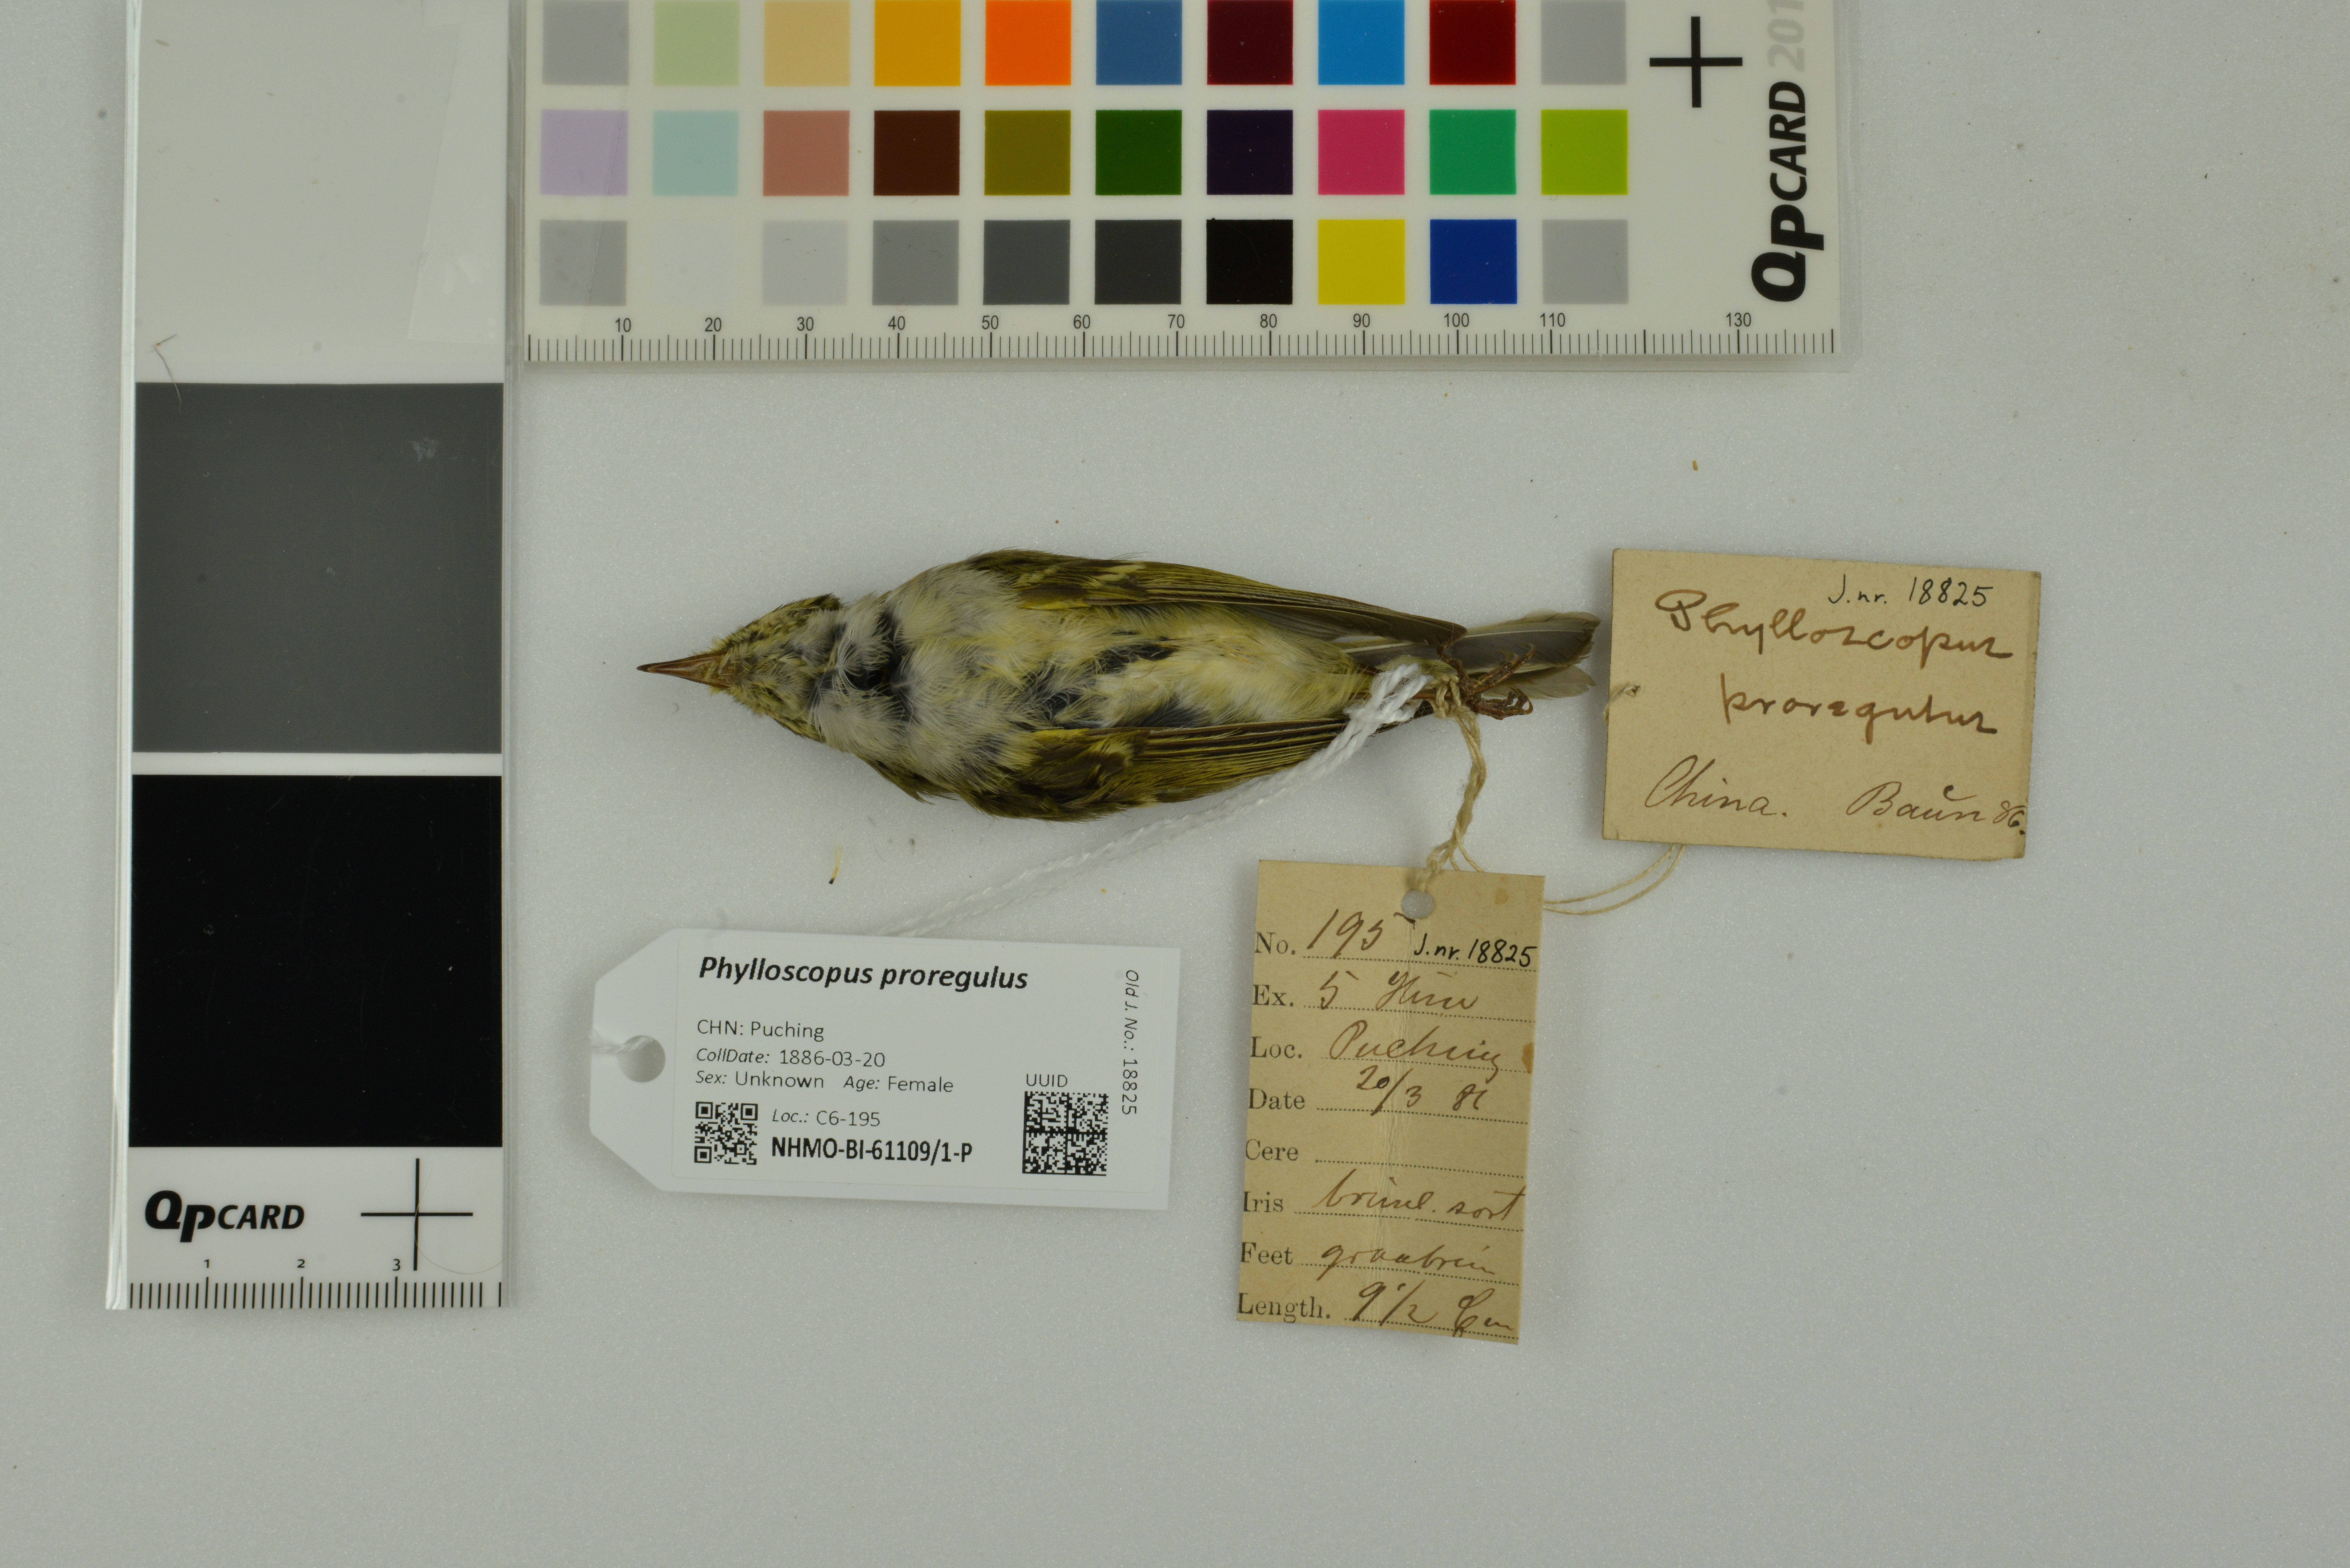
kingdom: Animalia
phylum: Chordata
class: Aves
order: Passeriformes
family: Phylloscopidae
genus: Phylloscopus
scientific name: Phylloscopus proregulus
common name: Pallas's leaf warbler
